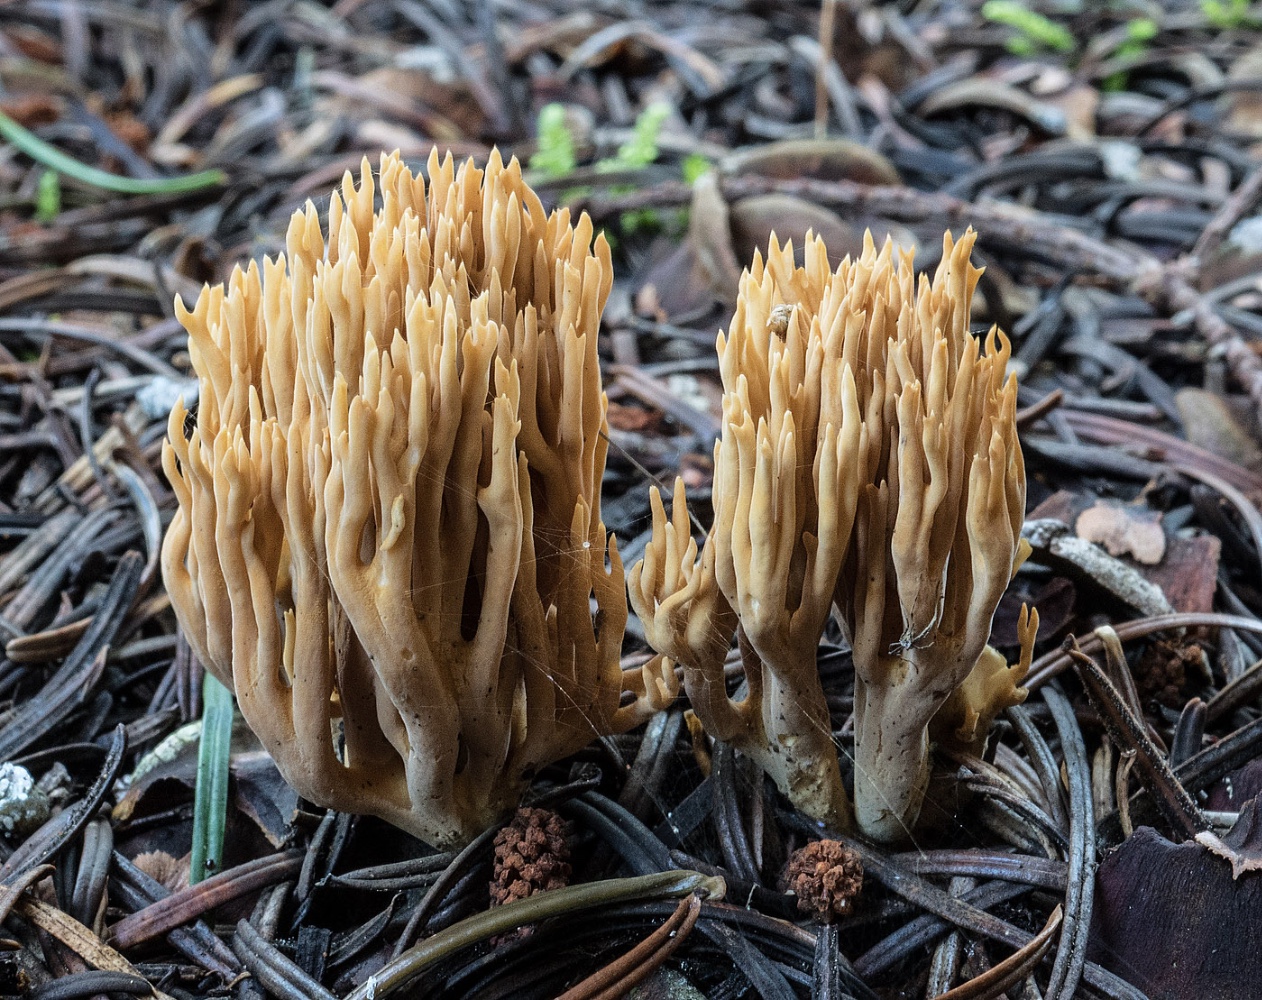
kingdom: Fungi
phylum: Basidiomycota
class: Agaricomycetes
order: Gomphales
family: Gomphaceae
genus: Phaeoclavulina
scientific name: Phaeoclavulina eumorpha
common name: gran-koralsvamp
